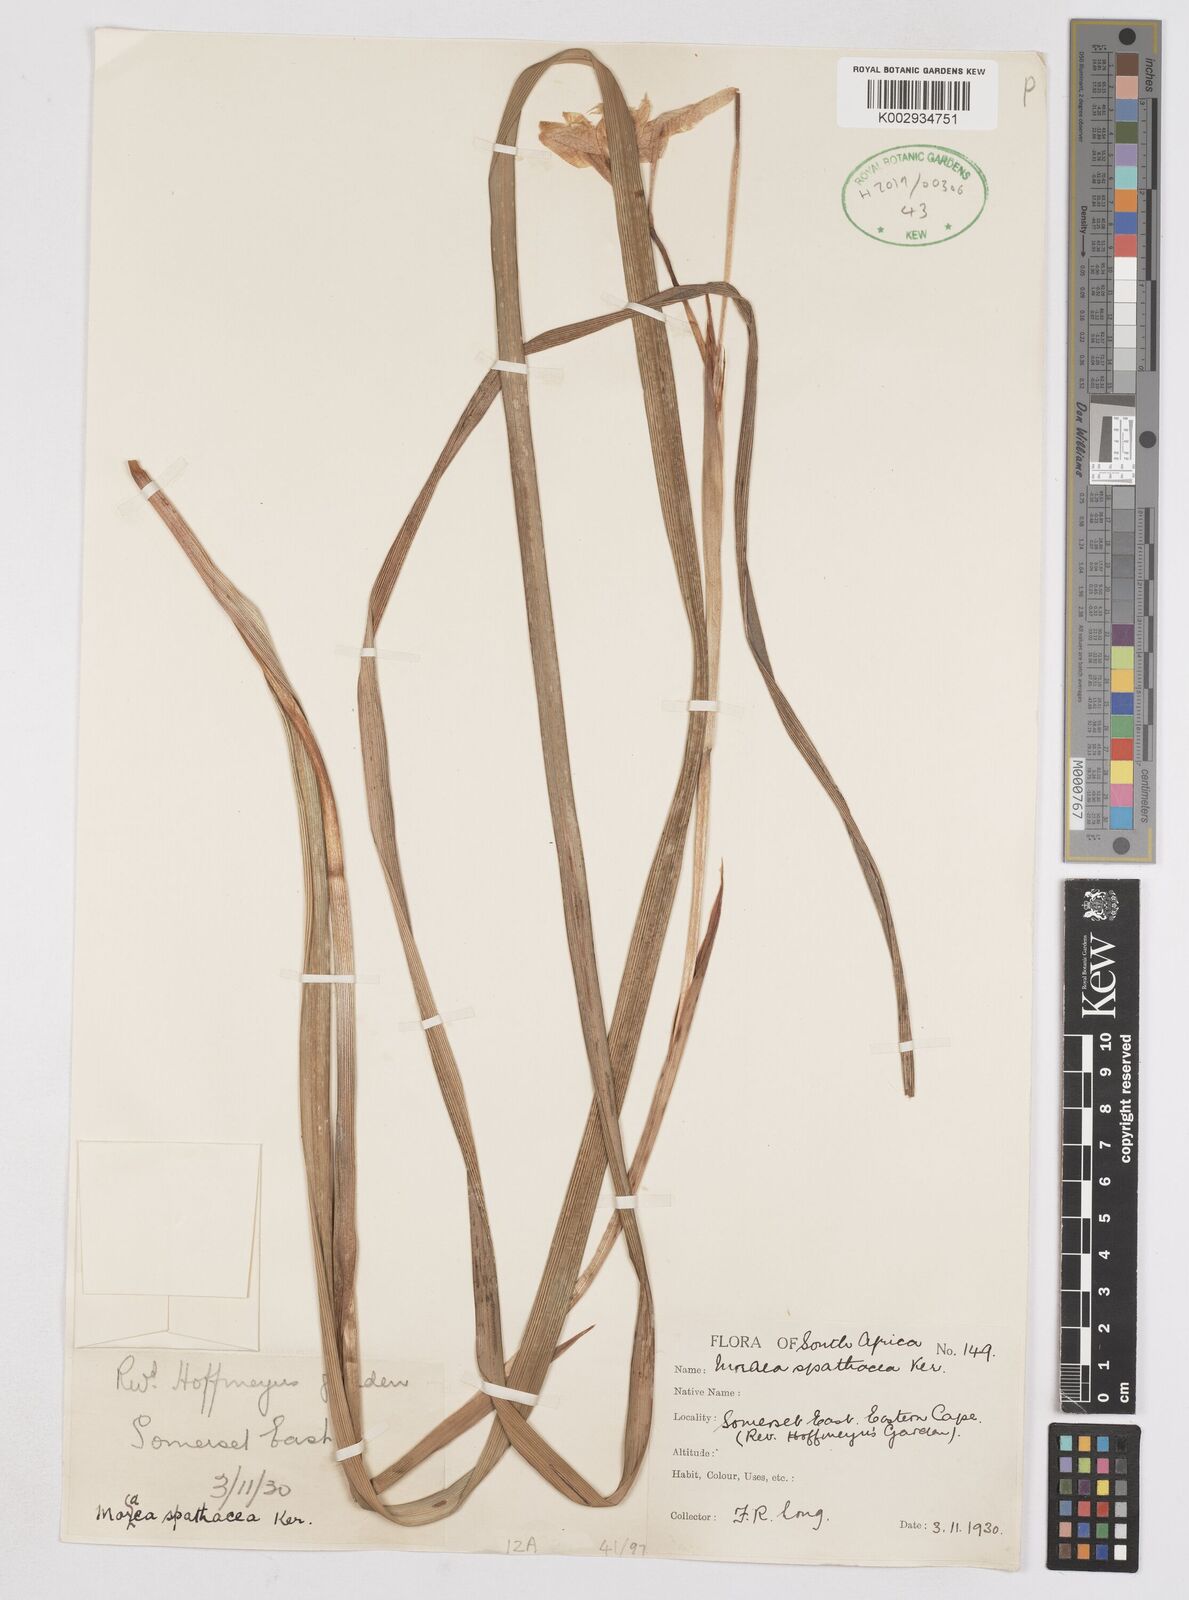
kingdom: Plantae
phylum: Tracheophyta
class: Liliopsida
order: Asparagales
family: Iridaceae
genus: Moraea
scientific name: Moraea spathulata
